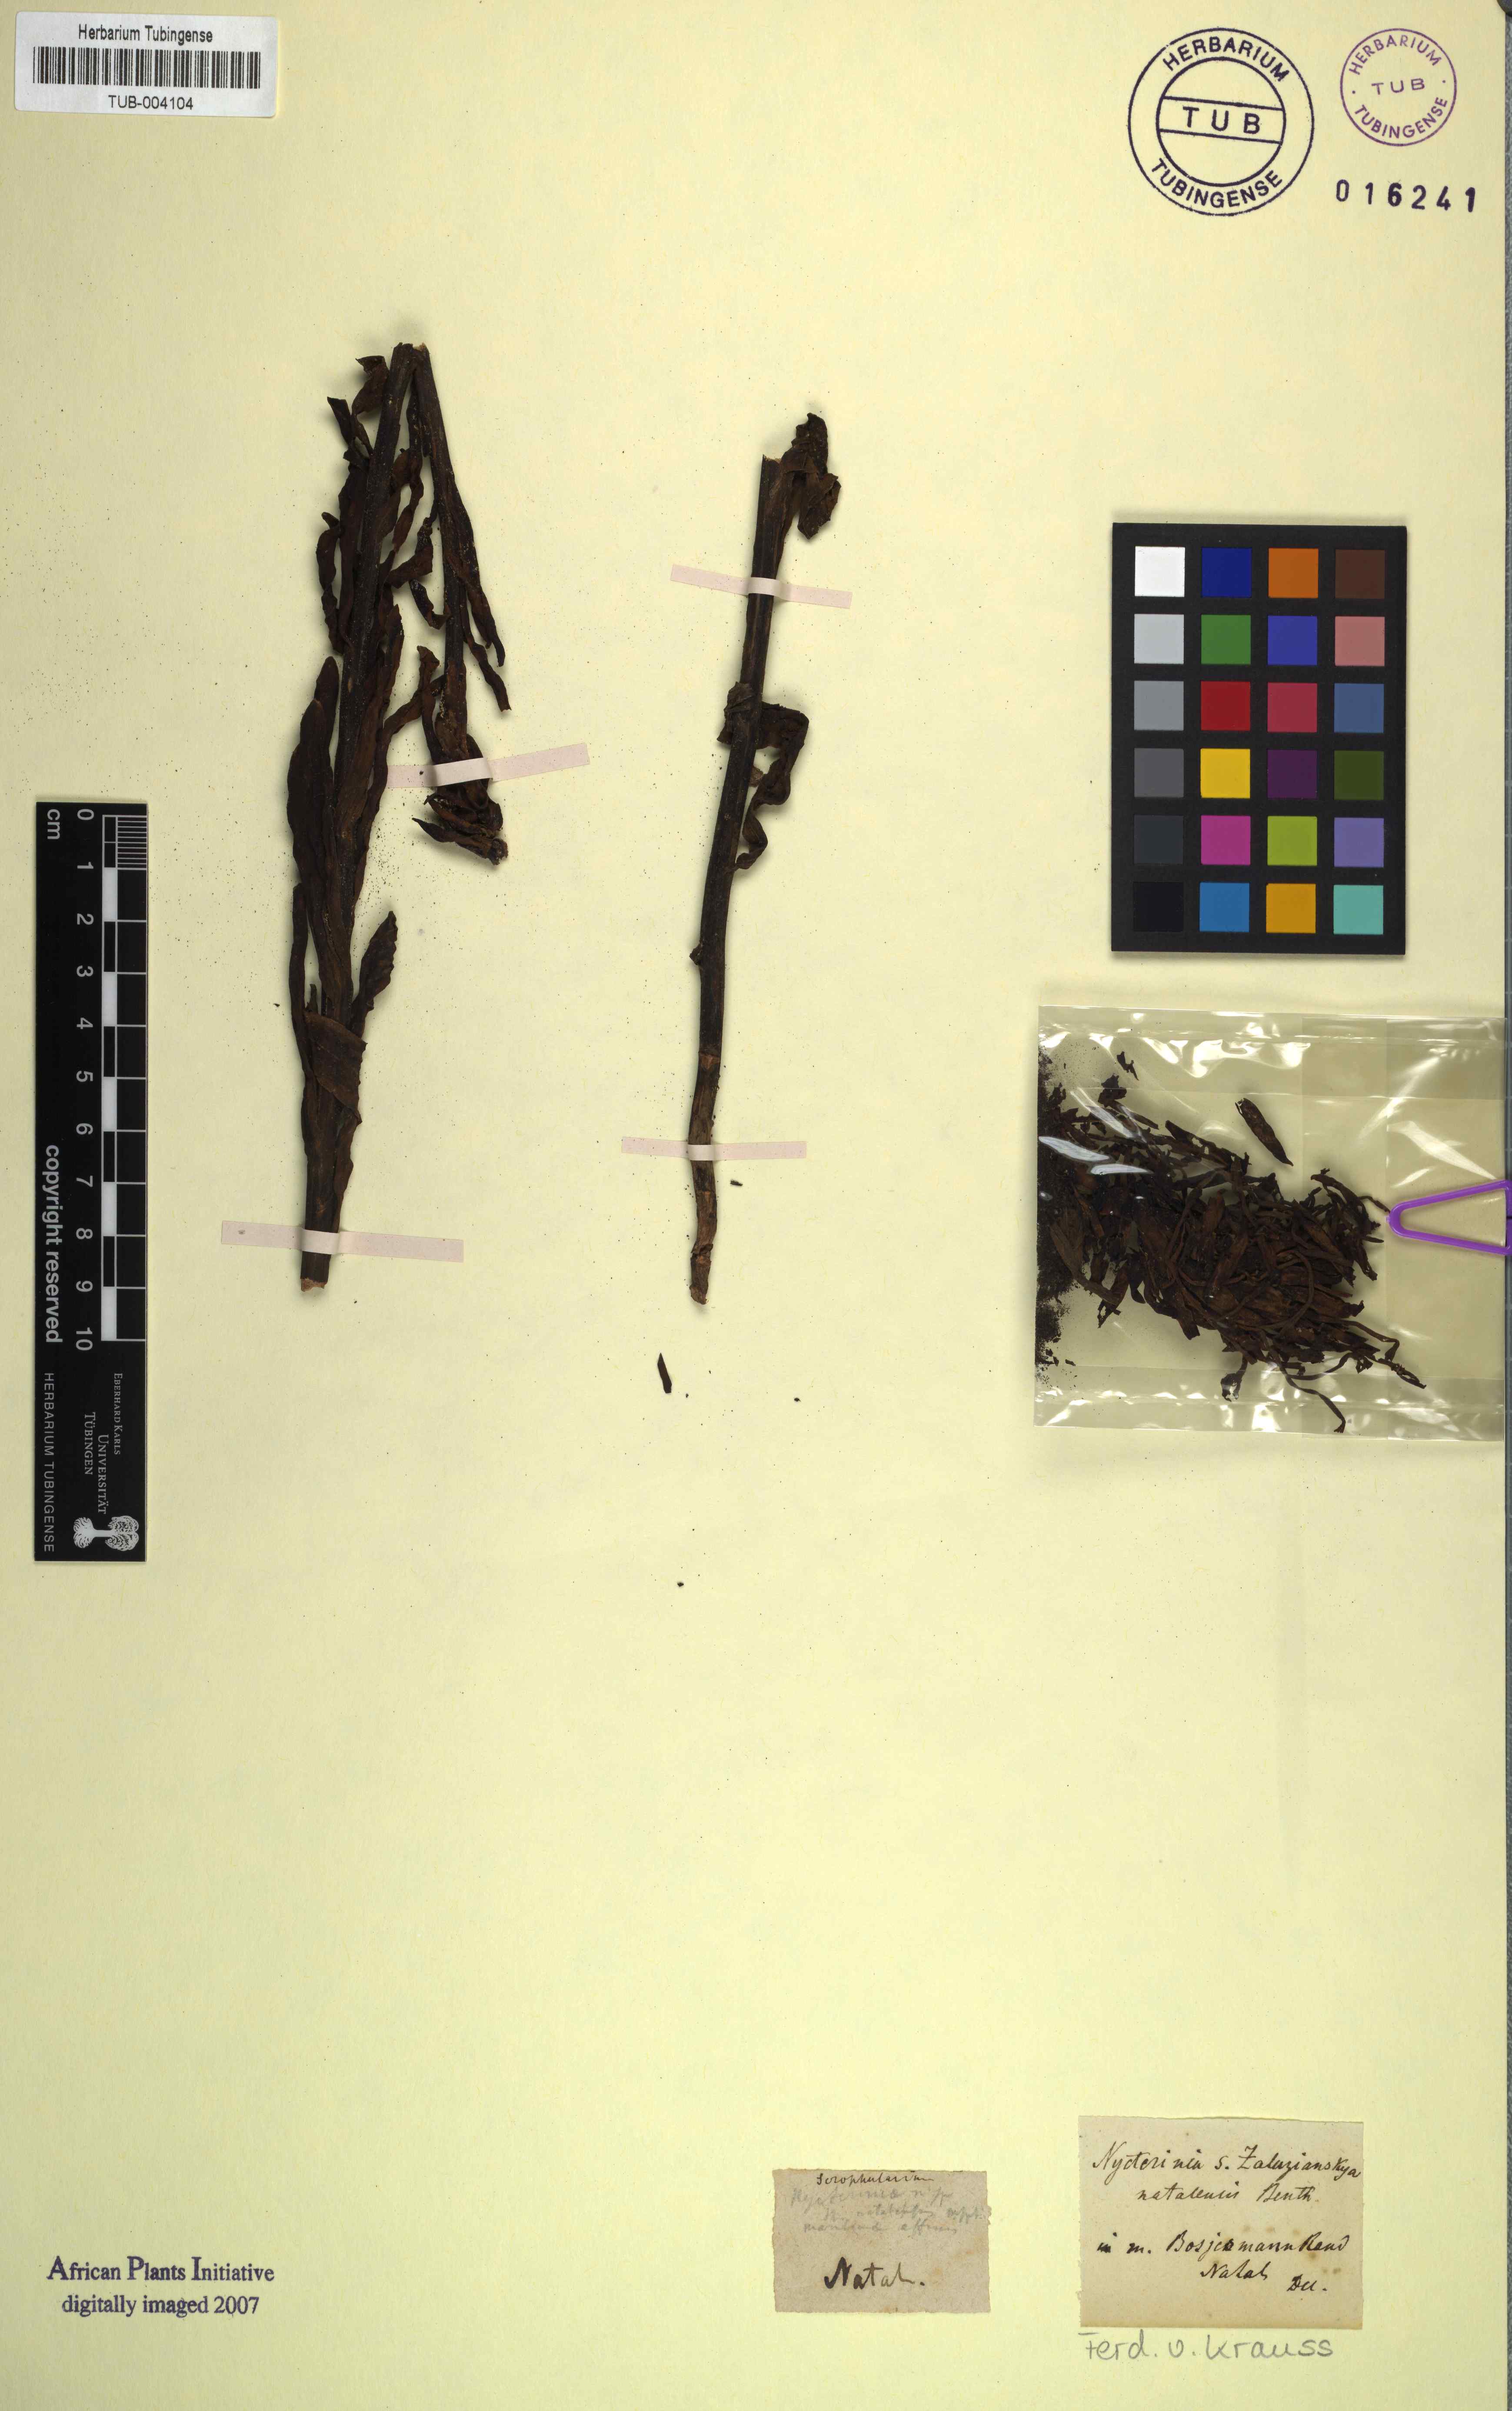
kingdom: Plantae
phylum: Tracheophyta
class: Magnoliopsida
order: Lamiales
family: Scrophulariaceae
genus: Zaluzianskya
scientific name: Zaluzianskya natalensis
